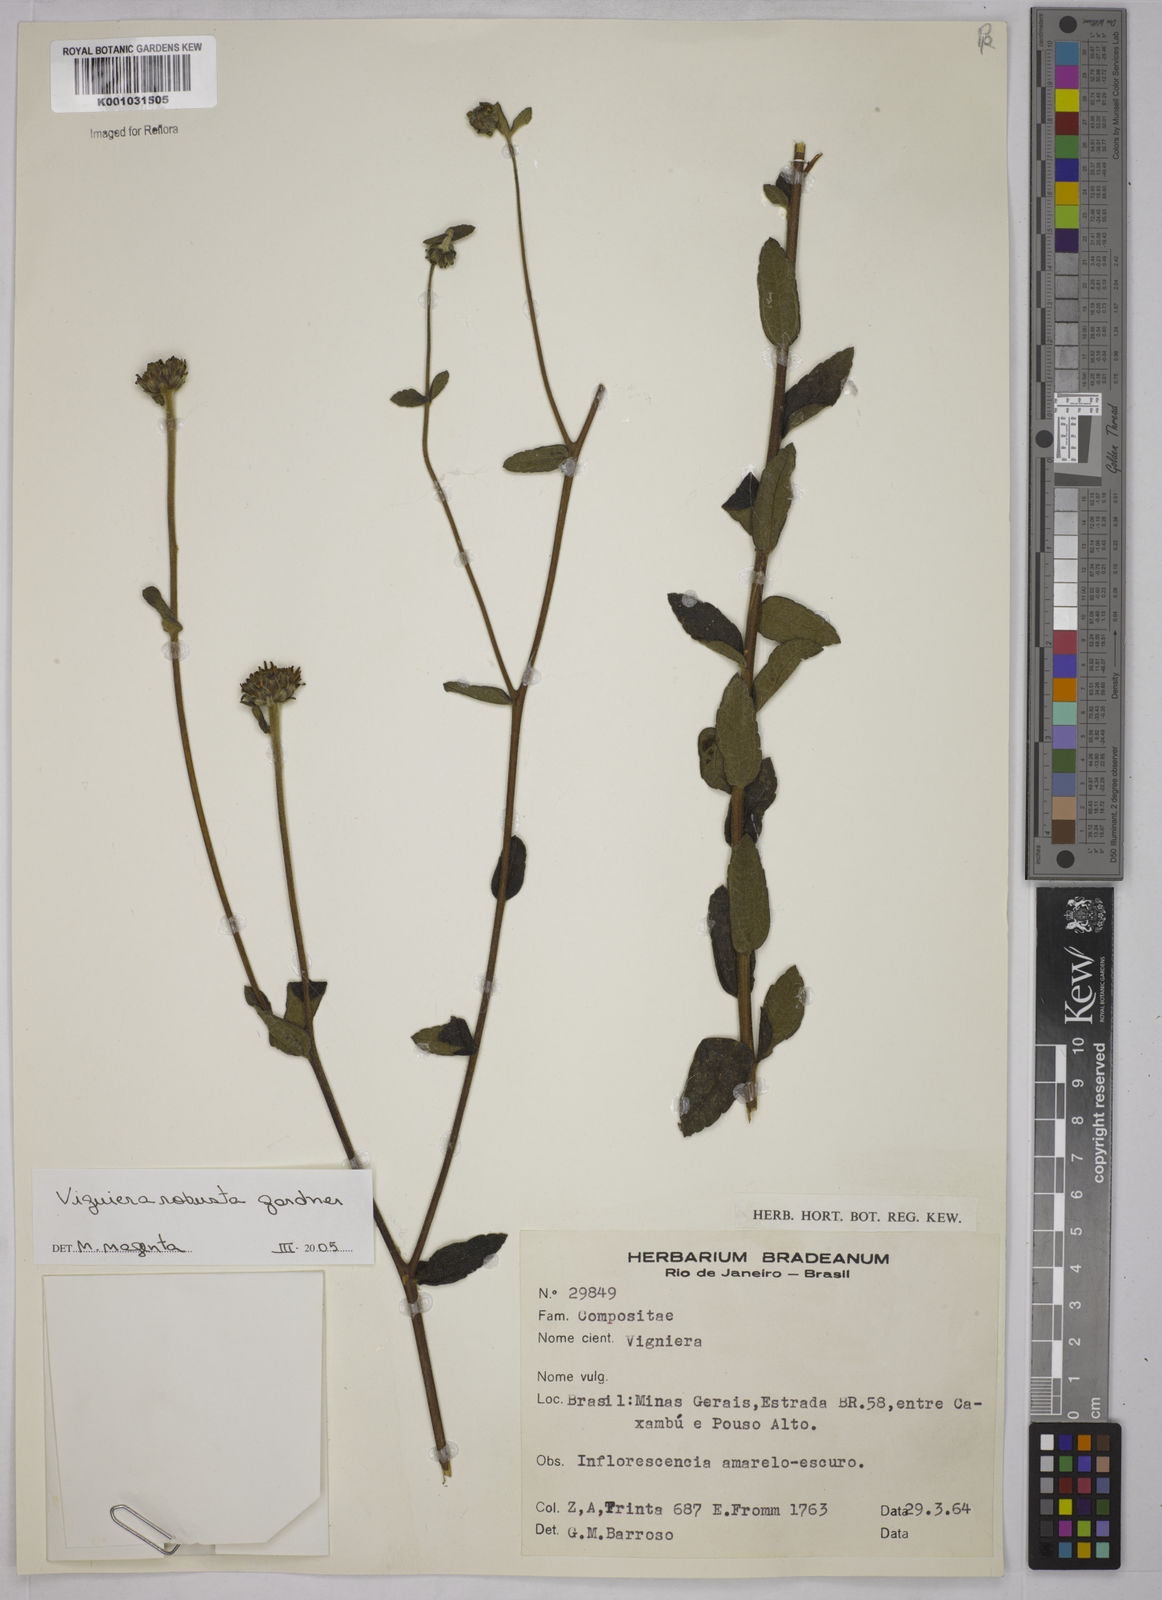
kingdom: Plantae
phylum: Tracheophyta
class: Magnoliopsida
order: Asterales
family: Asteraceae
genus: Aldama
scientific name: Aldama robusta
